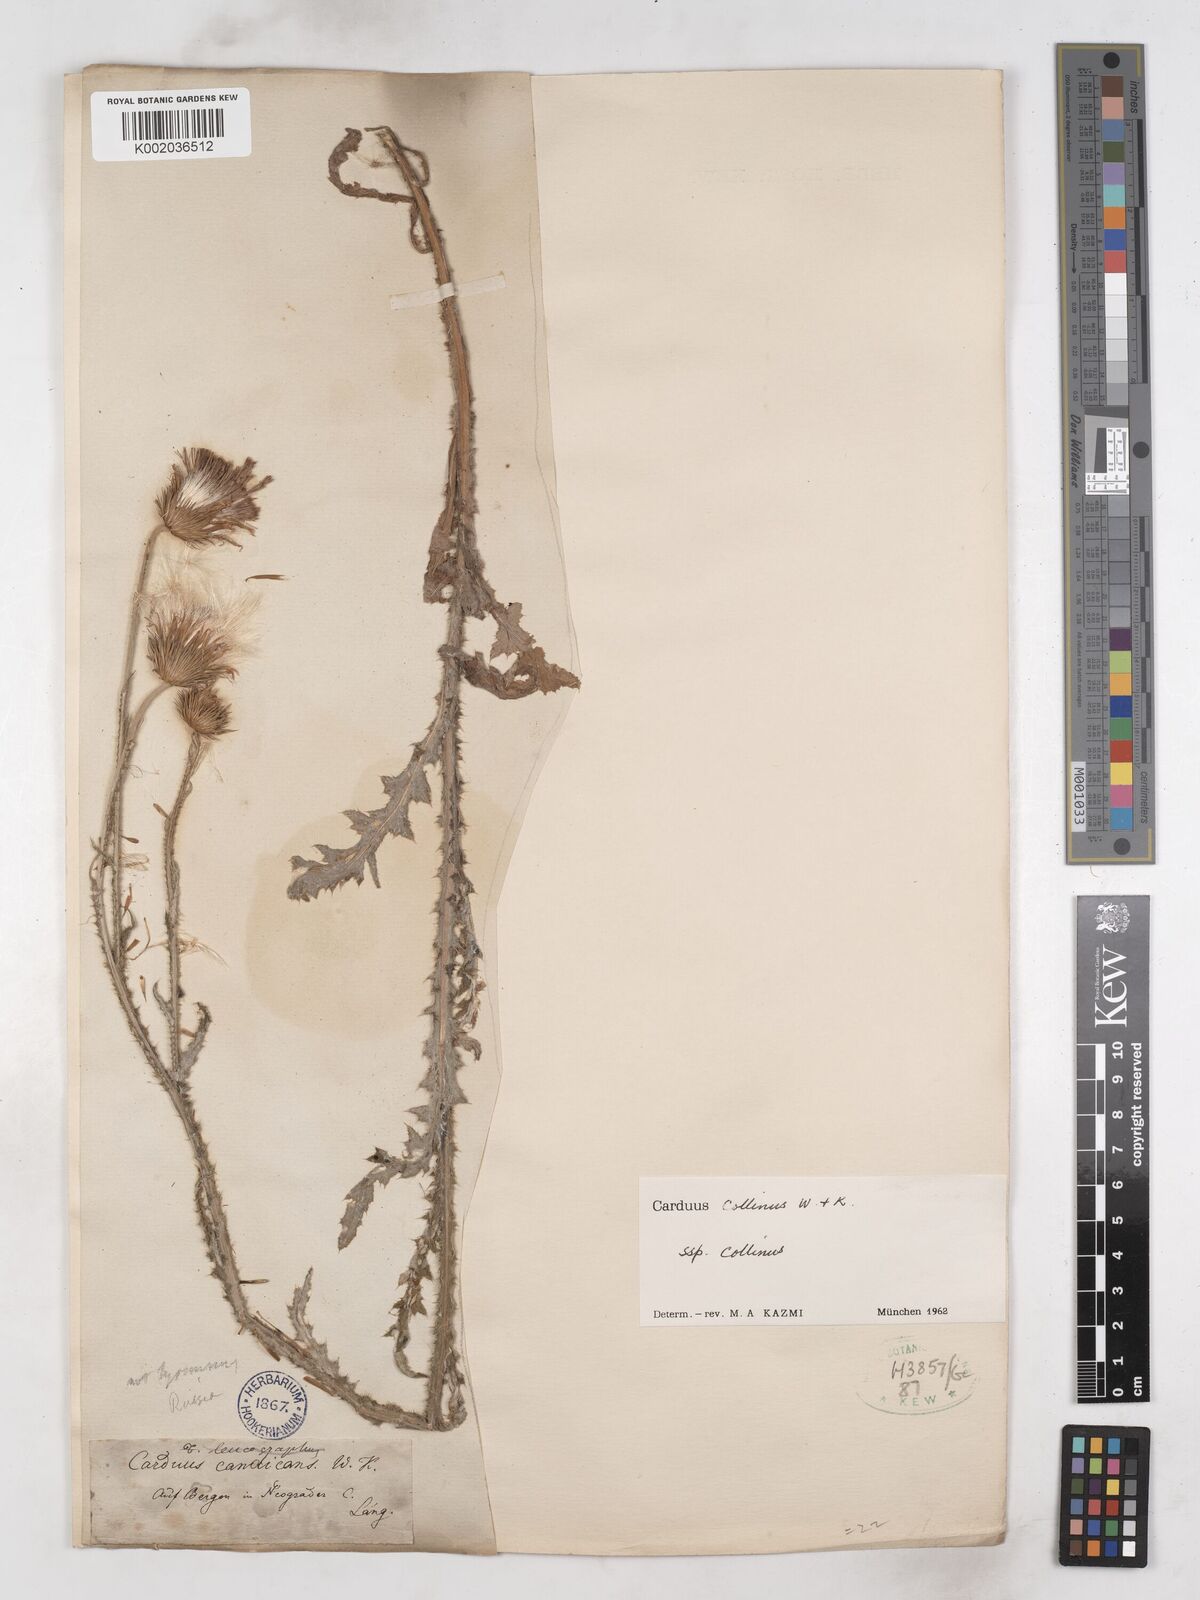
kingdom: Plantae
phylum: Tracheophyta
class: Magnoliopsida
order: Asterales
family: Asteraceae
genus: Carduus
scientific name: Carduus collinus
